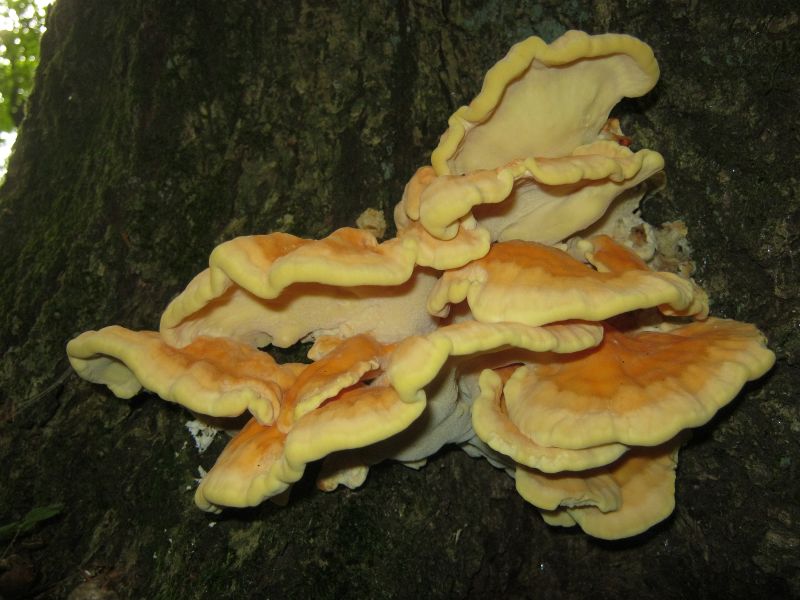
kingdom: Fungi
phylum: Basidiomycota
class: Agaricomycetes
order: Polyporales
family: Laetiporaceae
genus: Laetiporus
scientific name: Laetiporus sulphureus
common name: svovlporesvamp
